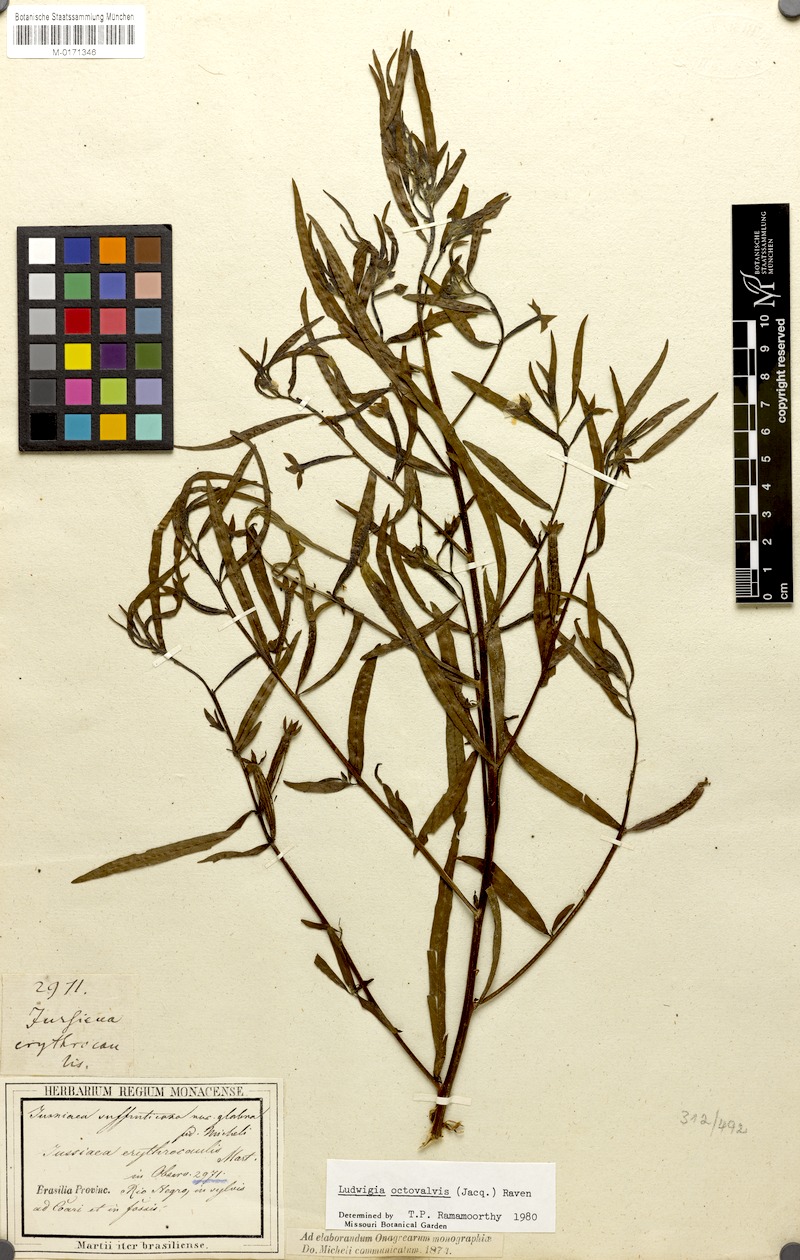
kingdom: Plantae
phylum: Tracheophyta
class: Magnoliopsida
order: Myrtales
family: Onagraceae
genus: Ludwigia
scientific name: Ludwigia octovalvis
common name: Water-primrose
